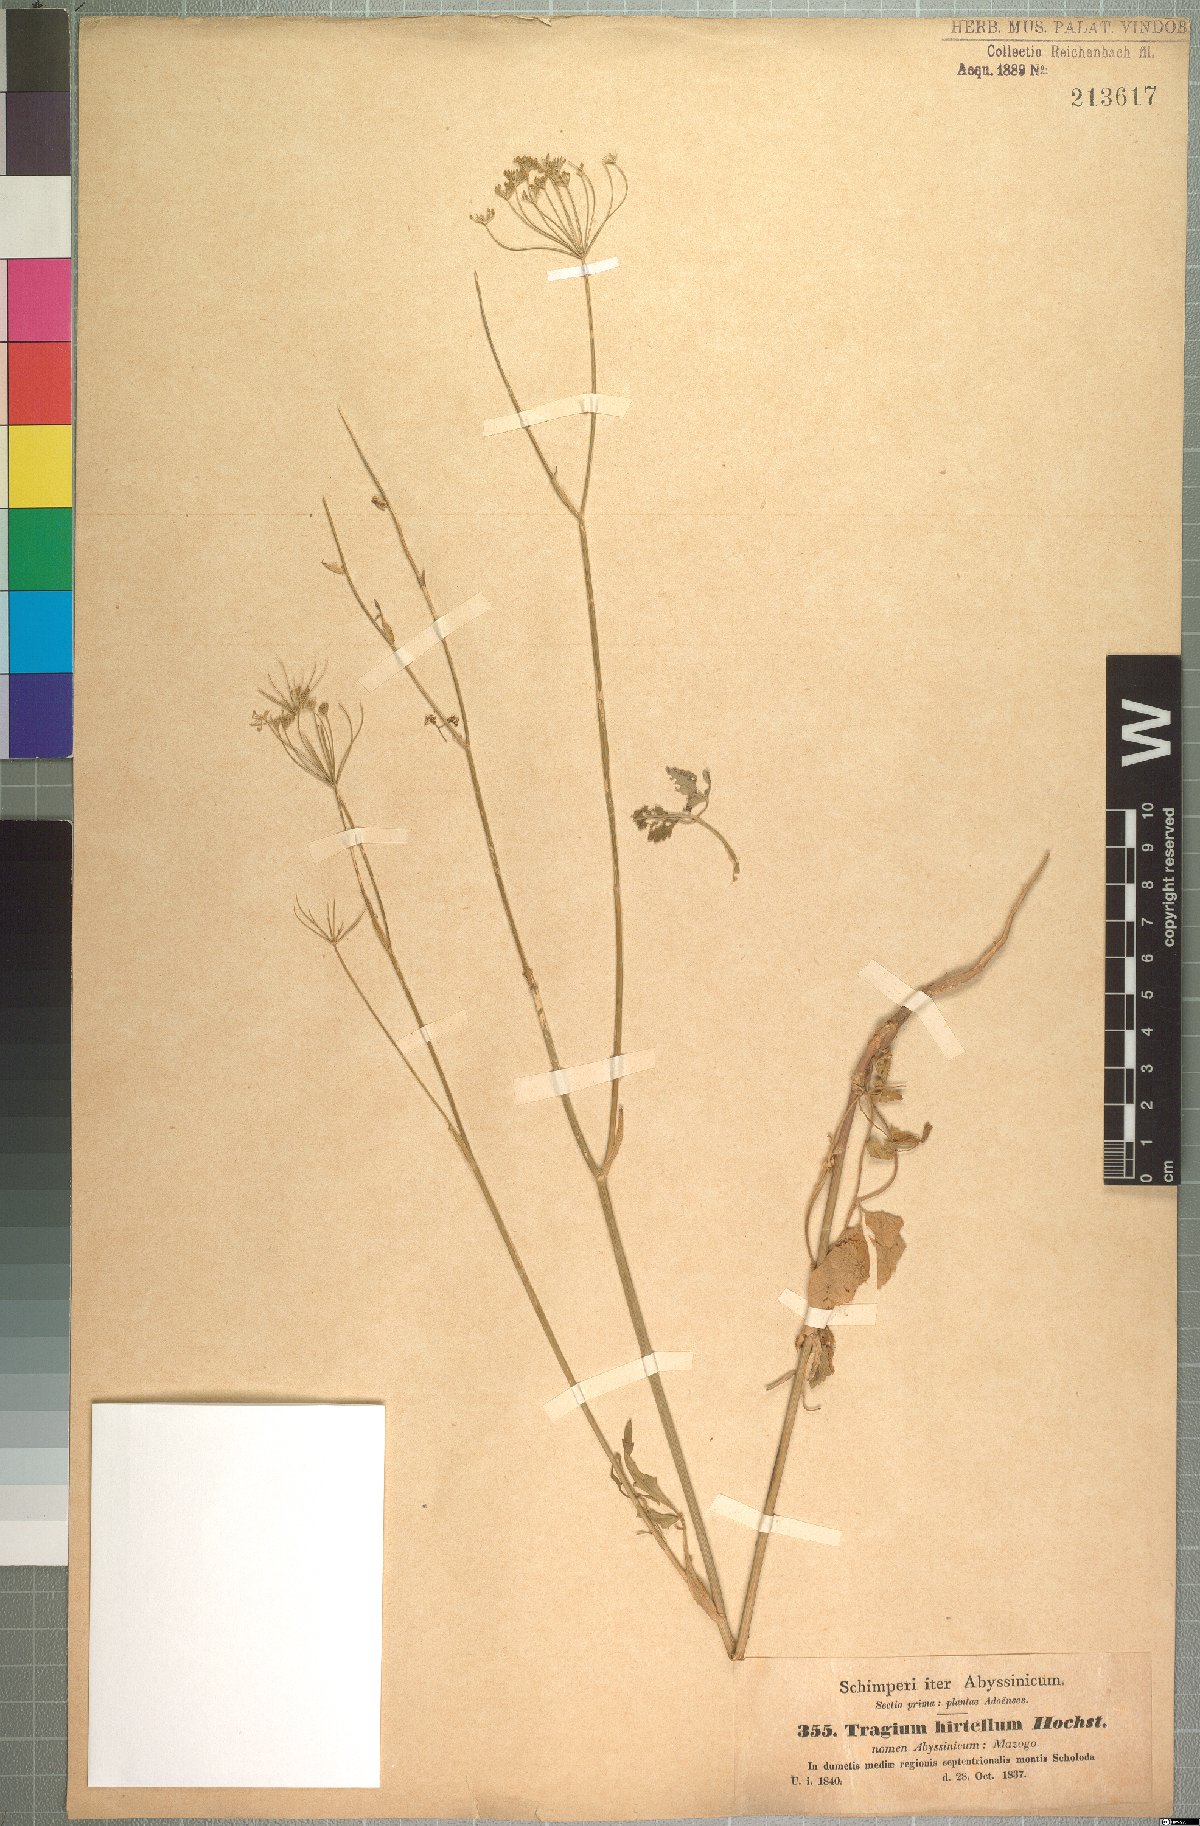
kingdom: Plantae
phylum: Tracheophyta
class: Magnoliopsida
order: Apiales
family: Apiaceae
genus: Pimpinella
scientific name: Pimpinella hirtella
